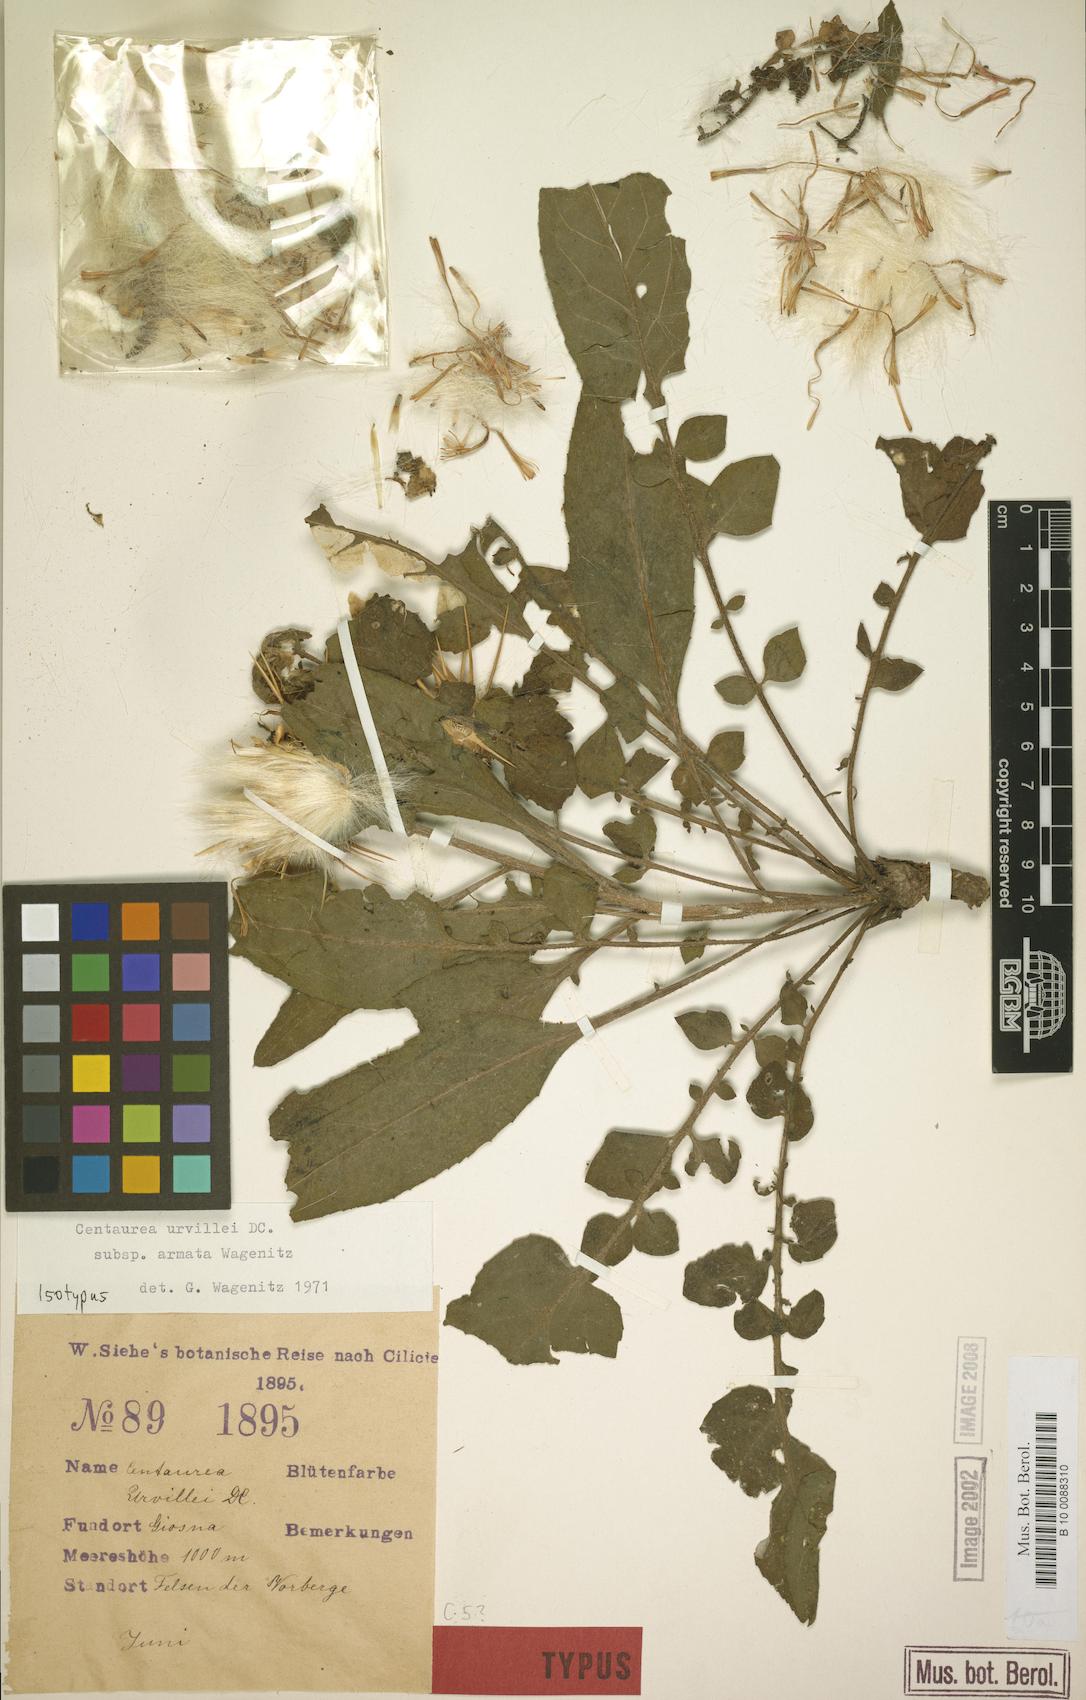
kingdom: Plantae
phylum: Tracheophyta
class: Magnoliopsida
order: Asterales
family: Asteraceae
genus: Centaurea
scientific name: Centaurea urvillei
